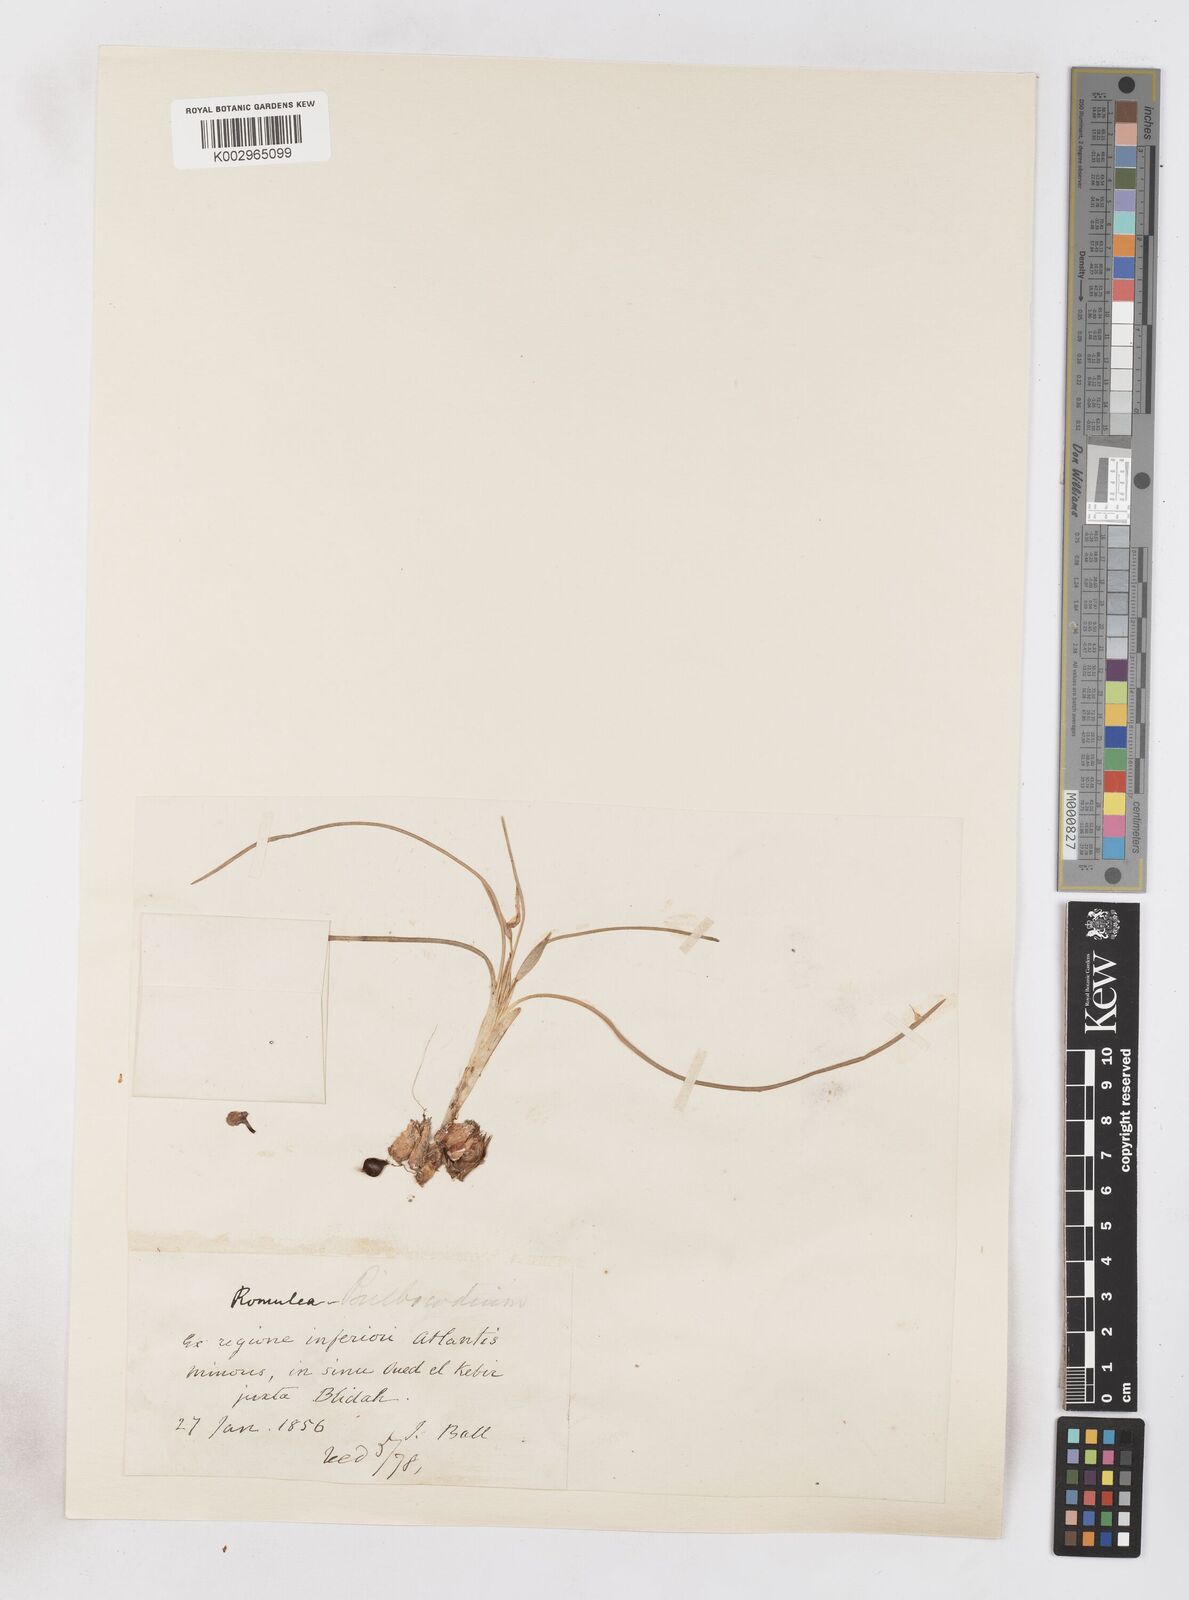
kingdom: Plantae
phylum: Tracheophyta
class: Liliopsida
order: Asparagales
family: Iridaceae
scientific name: Iridaceae
